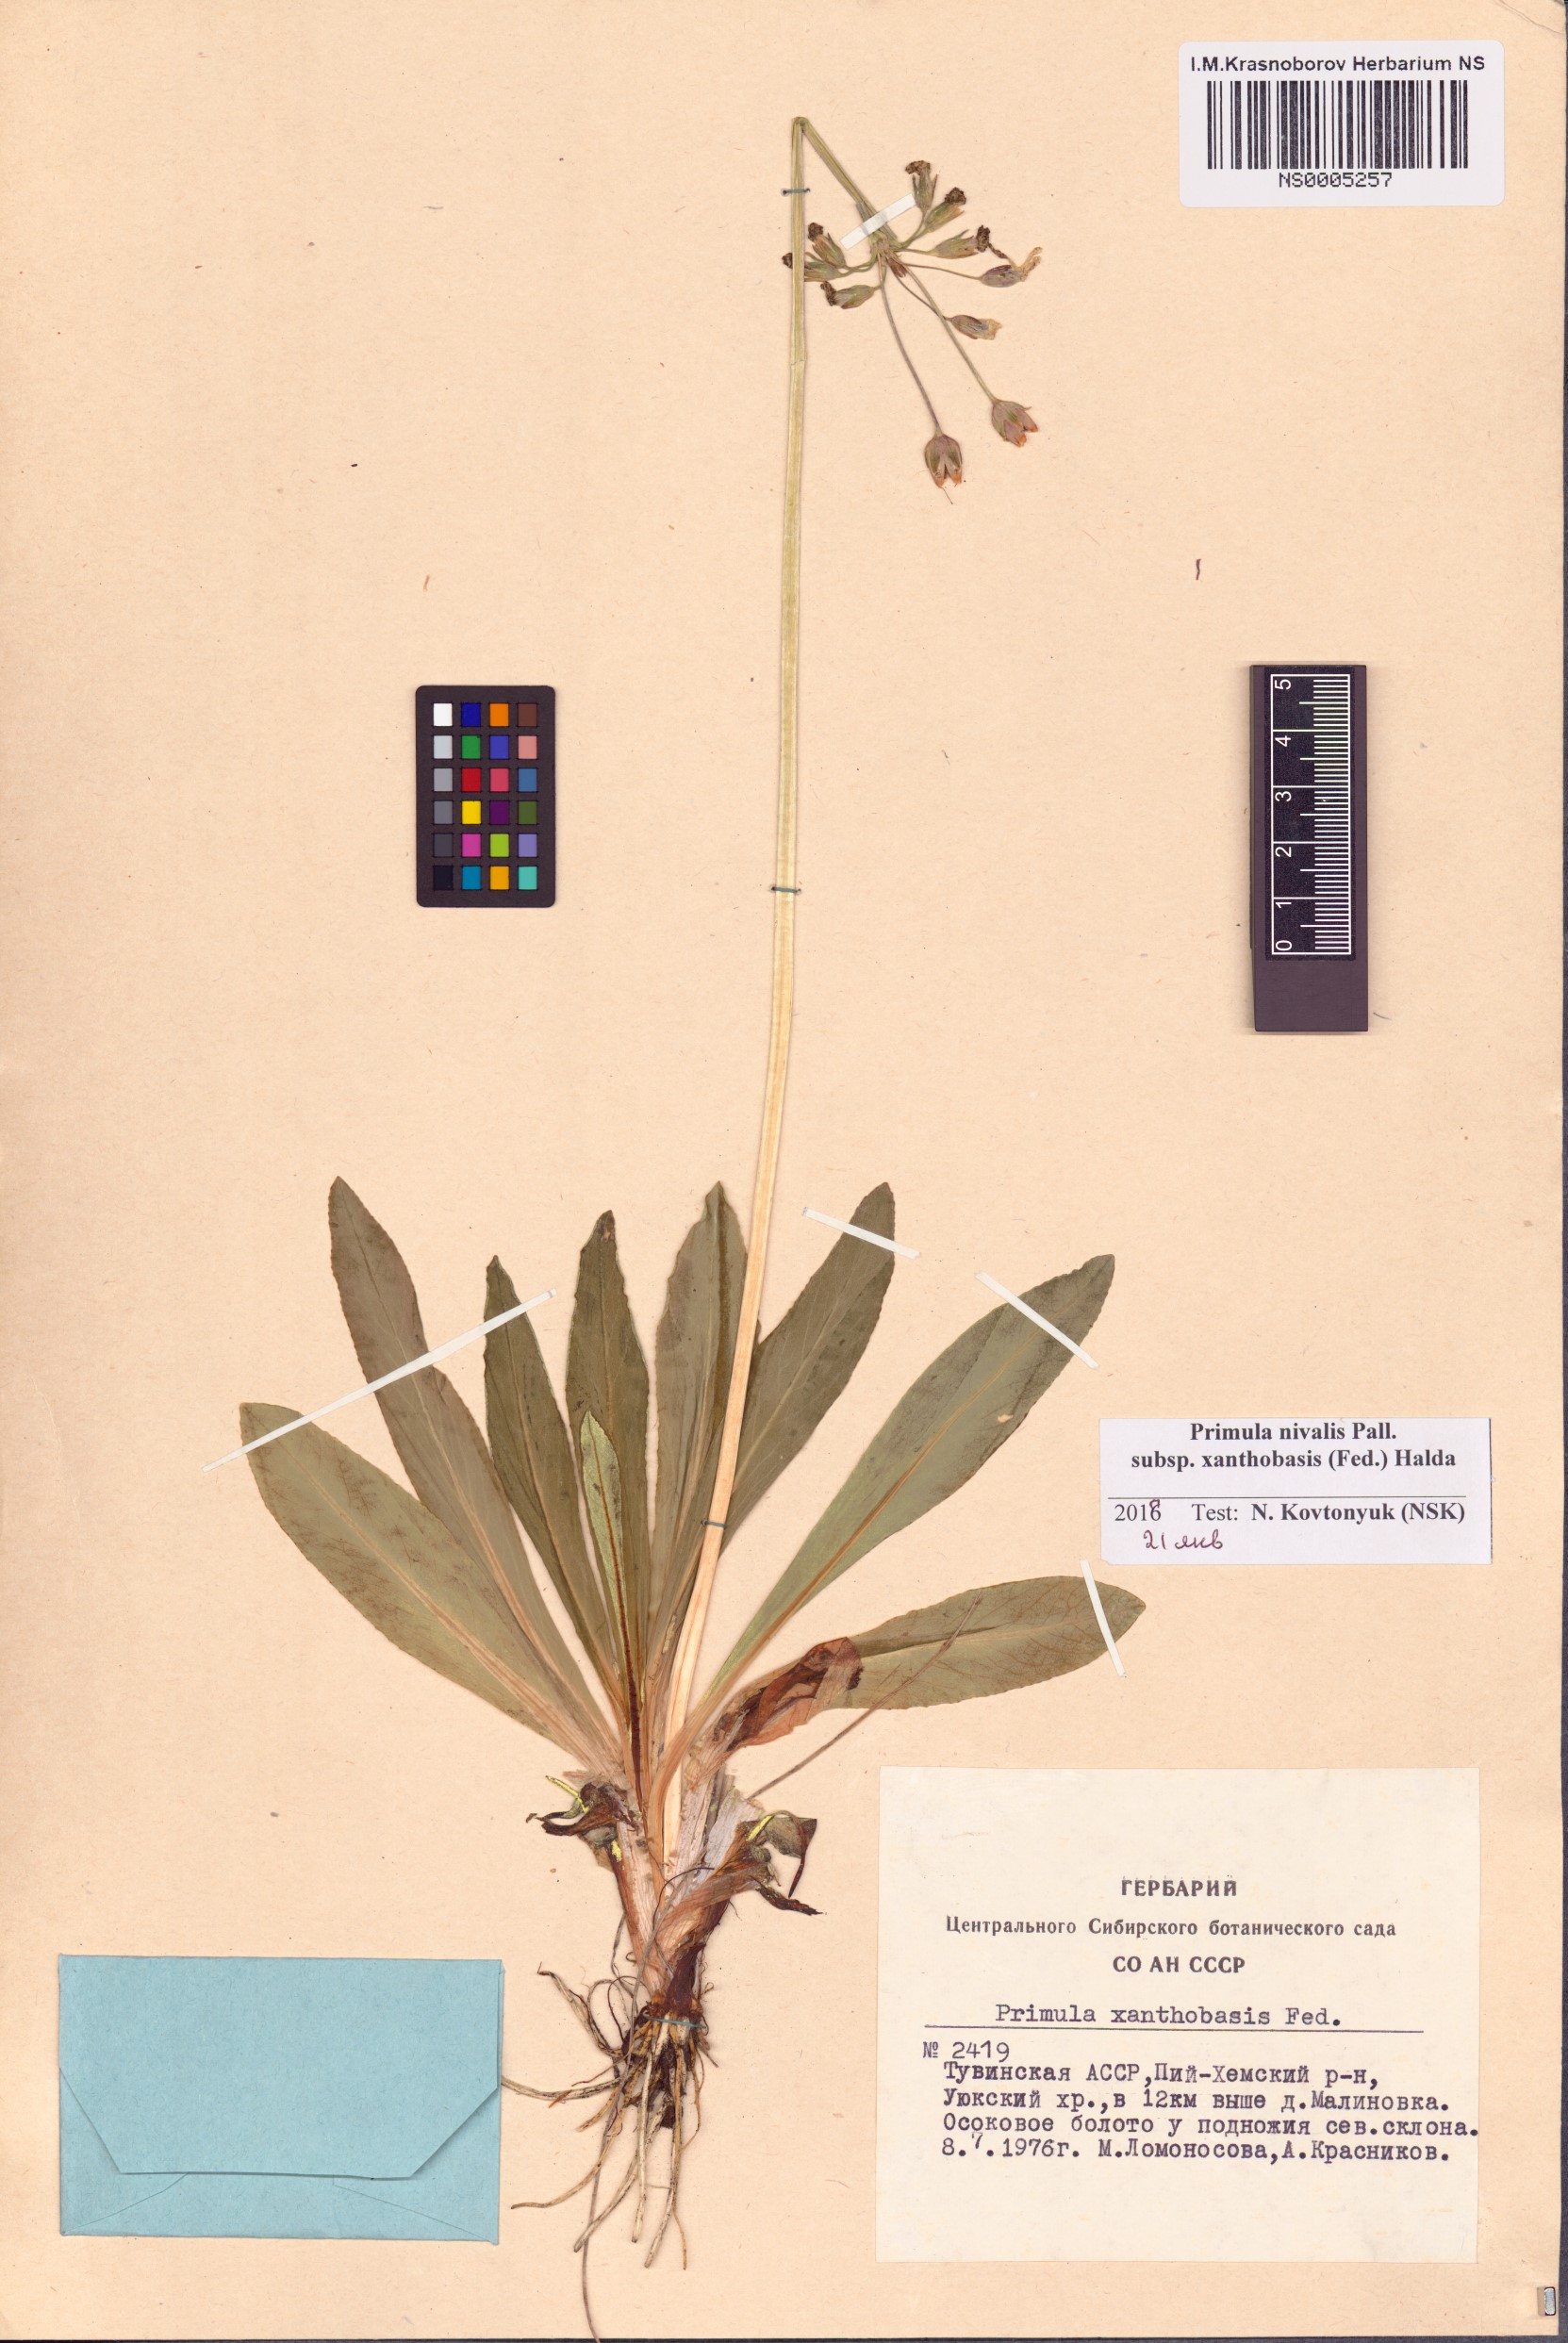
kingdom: Plantae
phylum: Tracheophyta
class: Magnoliopsida
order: Ericales
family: Primulaceae
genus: Primula
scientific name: Primula nivalis
